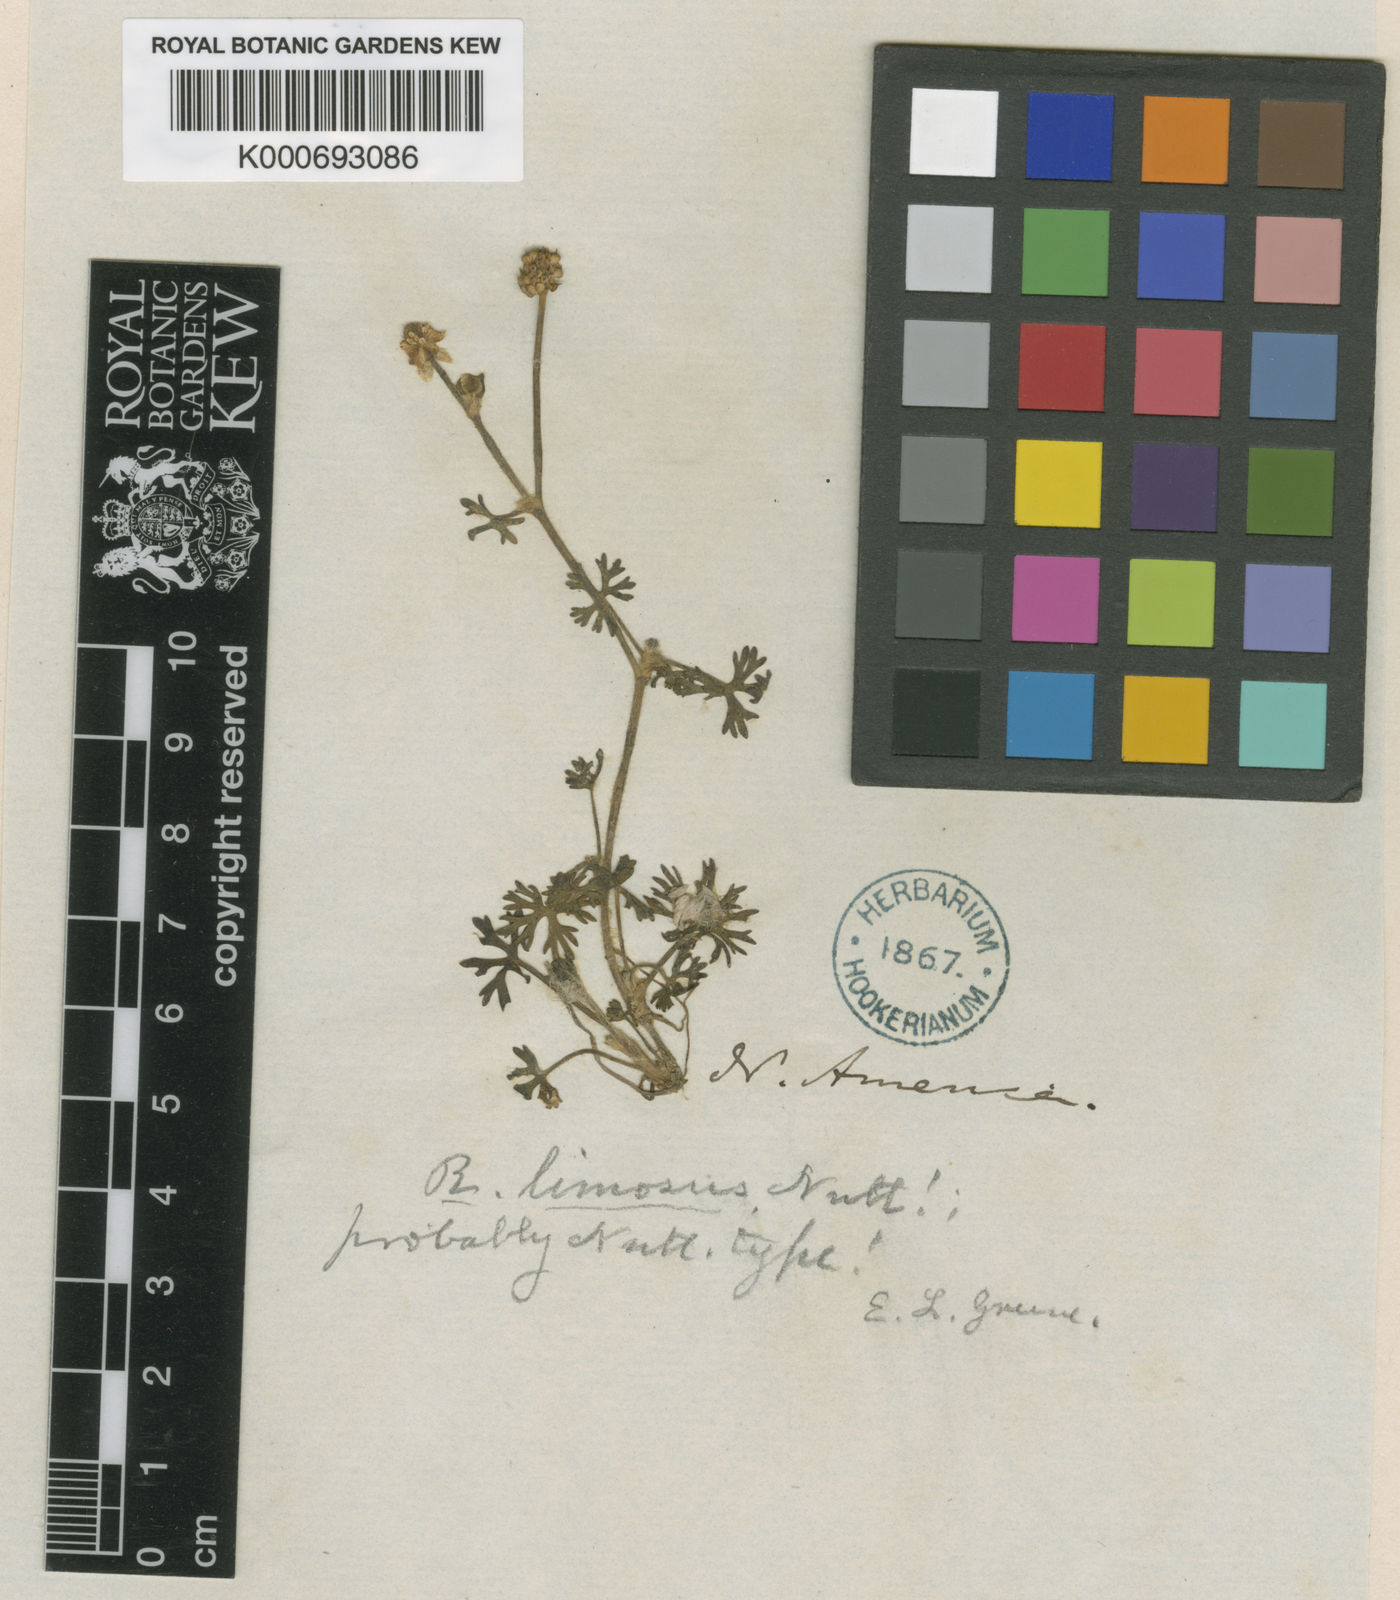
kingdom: Plantae
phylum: Tracheophyta
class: Magnoliopsida
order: Ranunculales
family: Ranunculaceae
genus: Ranunculus
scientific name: Ranunculus gmelinii
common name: Gmelin's buttercup
